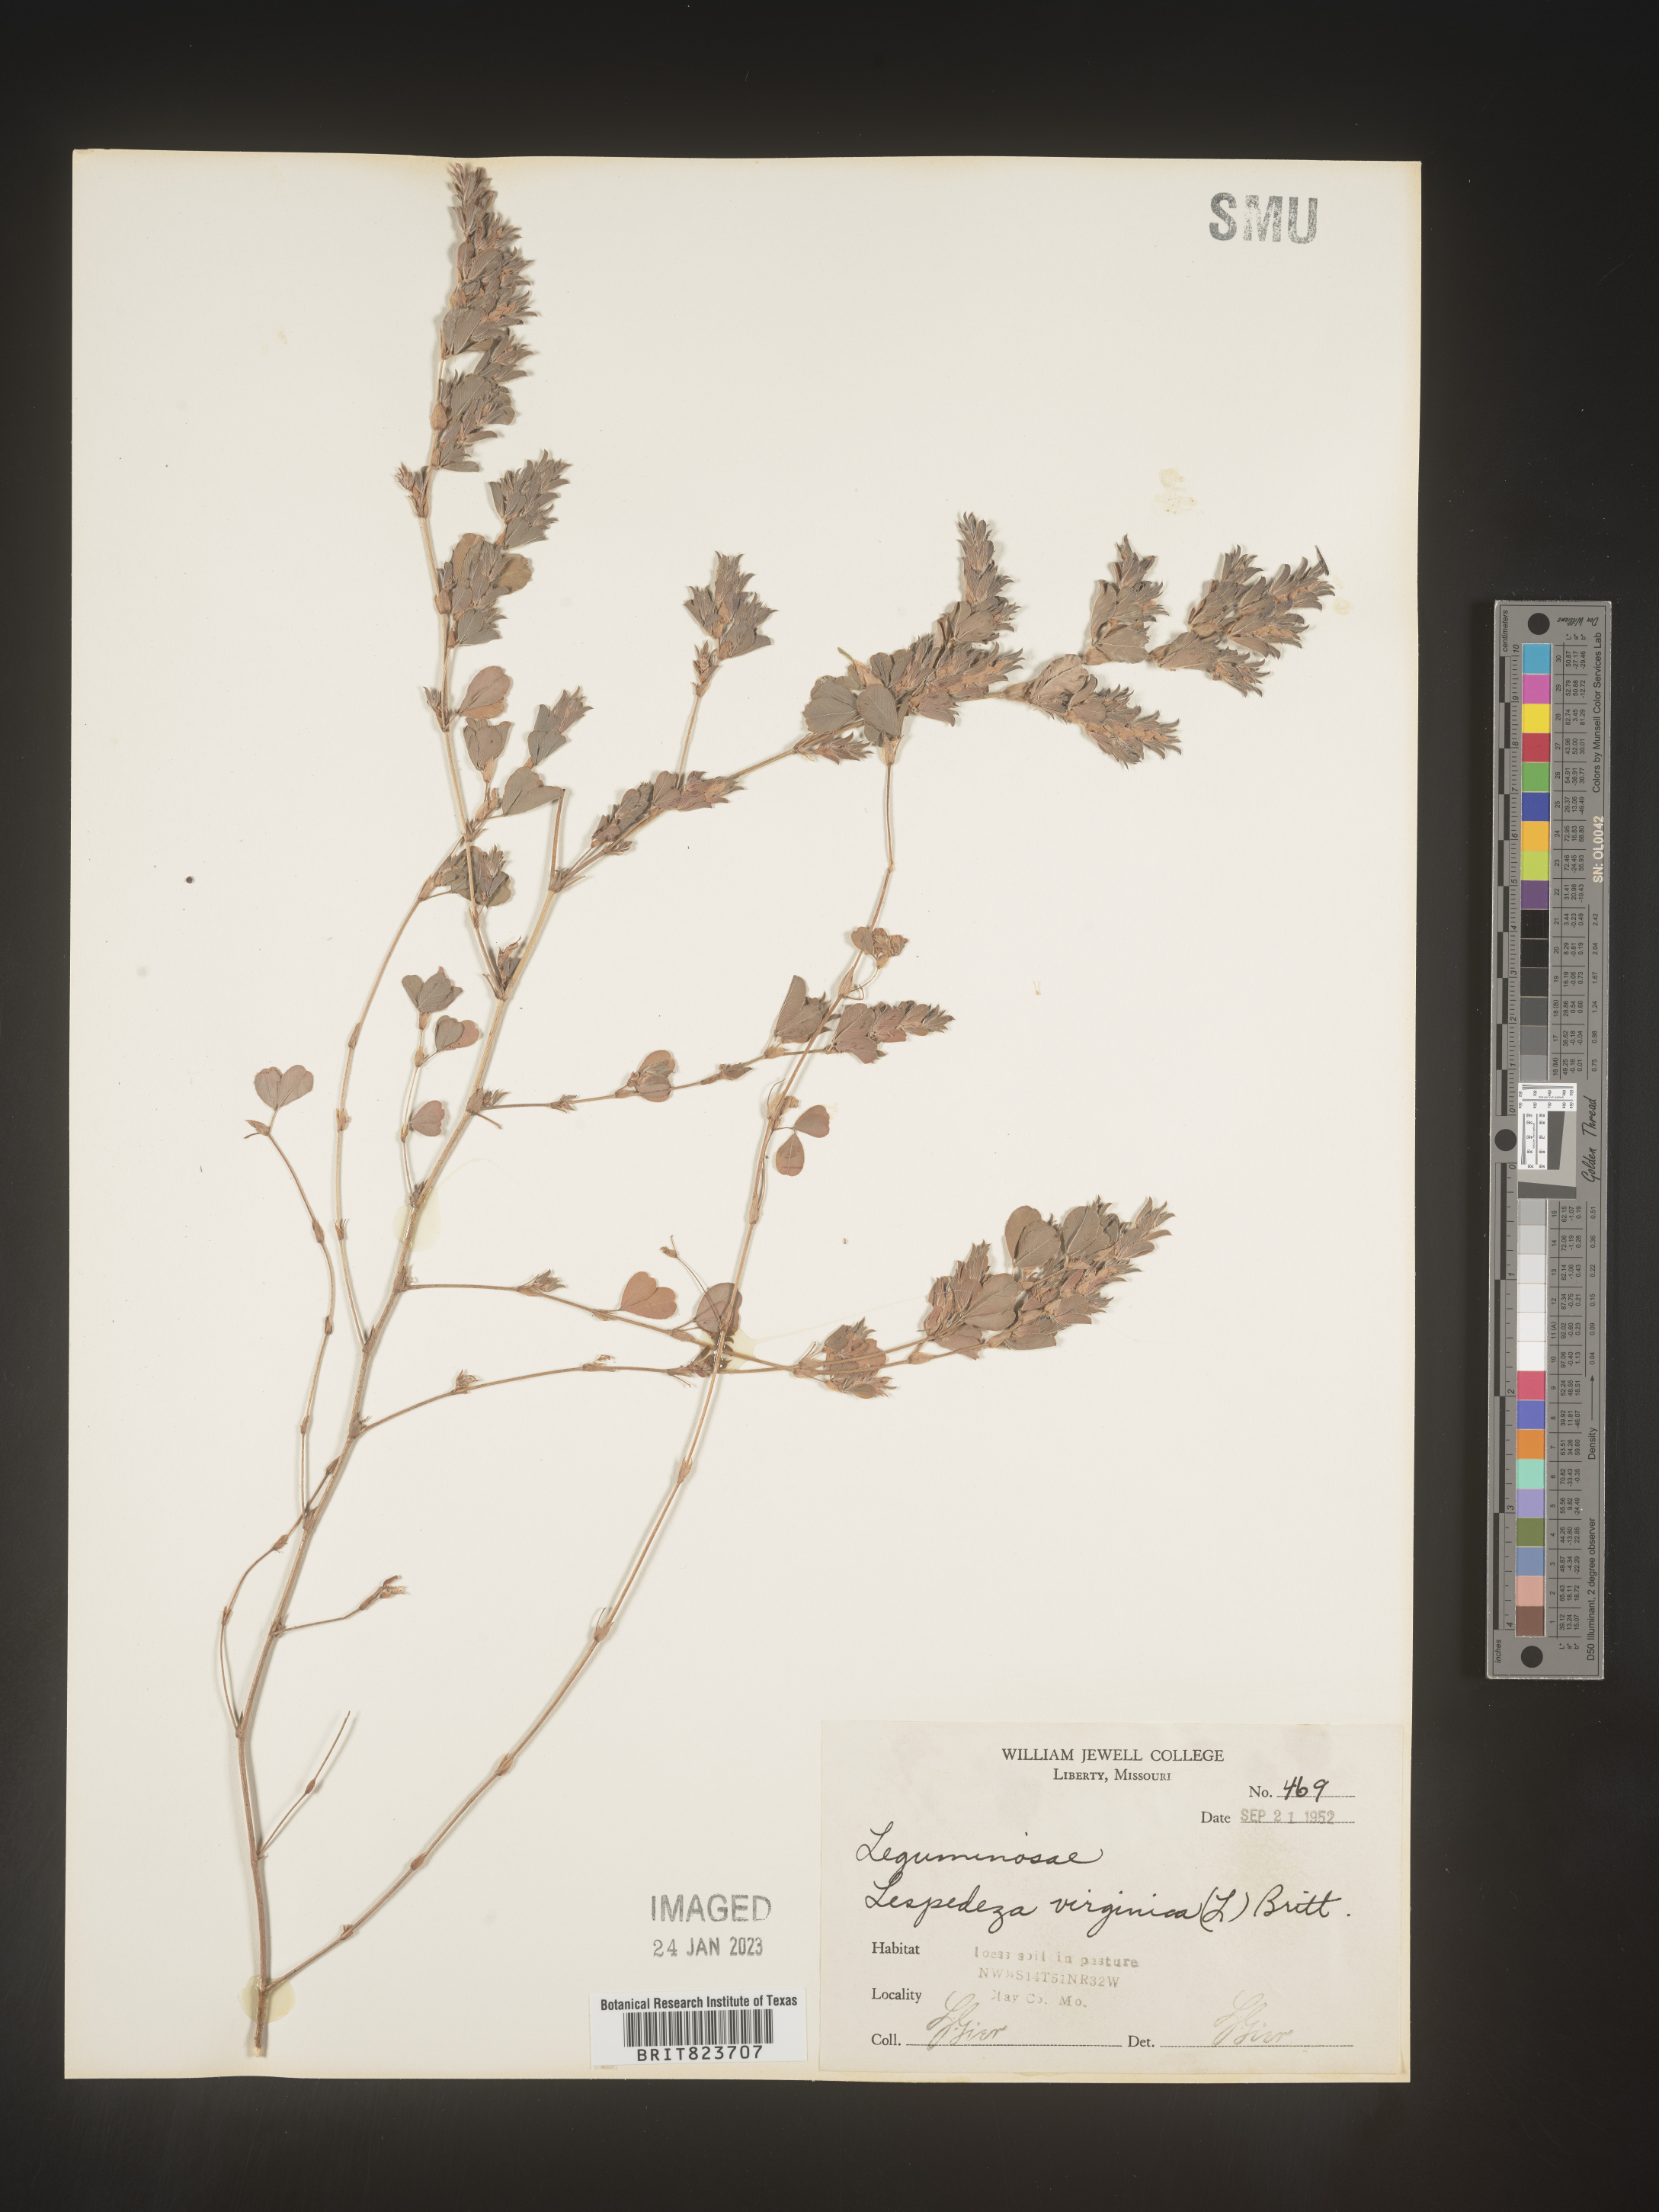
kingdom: Plantae
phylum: Tracheophyta
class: Magnoliopsida
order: Fabales
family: Fabaceae
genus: Lespedeza
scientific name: Lespedeza
